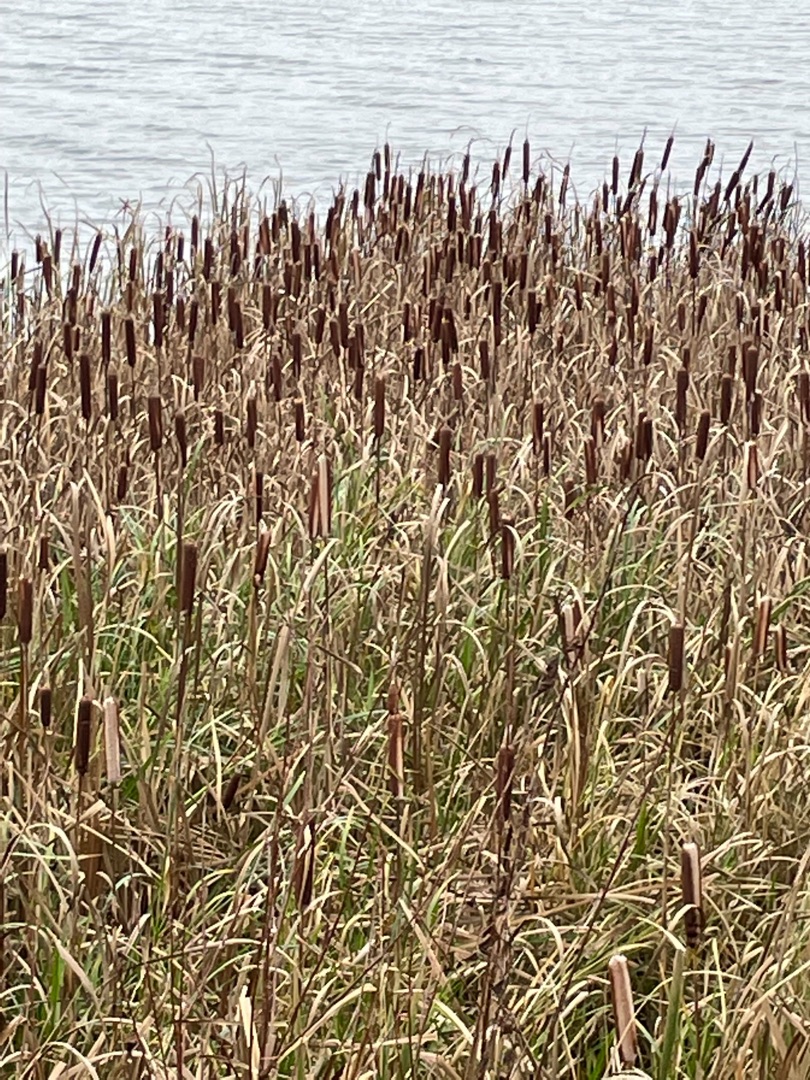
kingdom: Plantae
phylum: Tracheophyta
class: Liliopsida
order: Poales
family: Typhaceae
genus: Typha
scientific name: Typha latifolia
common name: Bredbladet dunhammer
